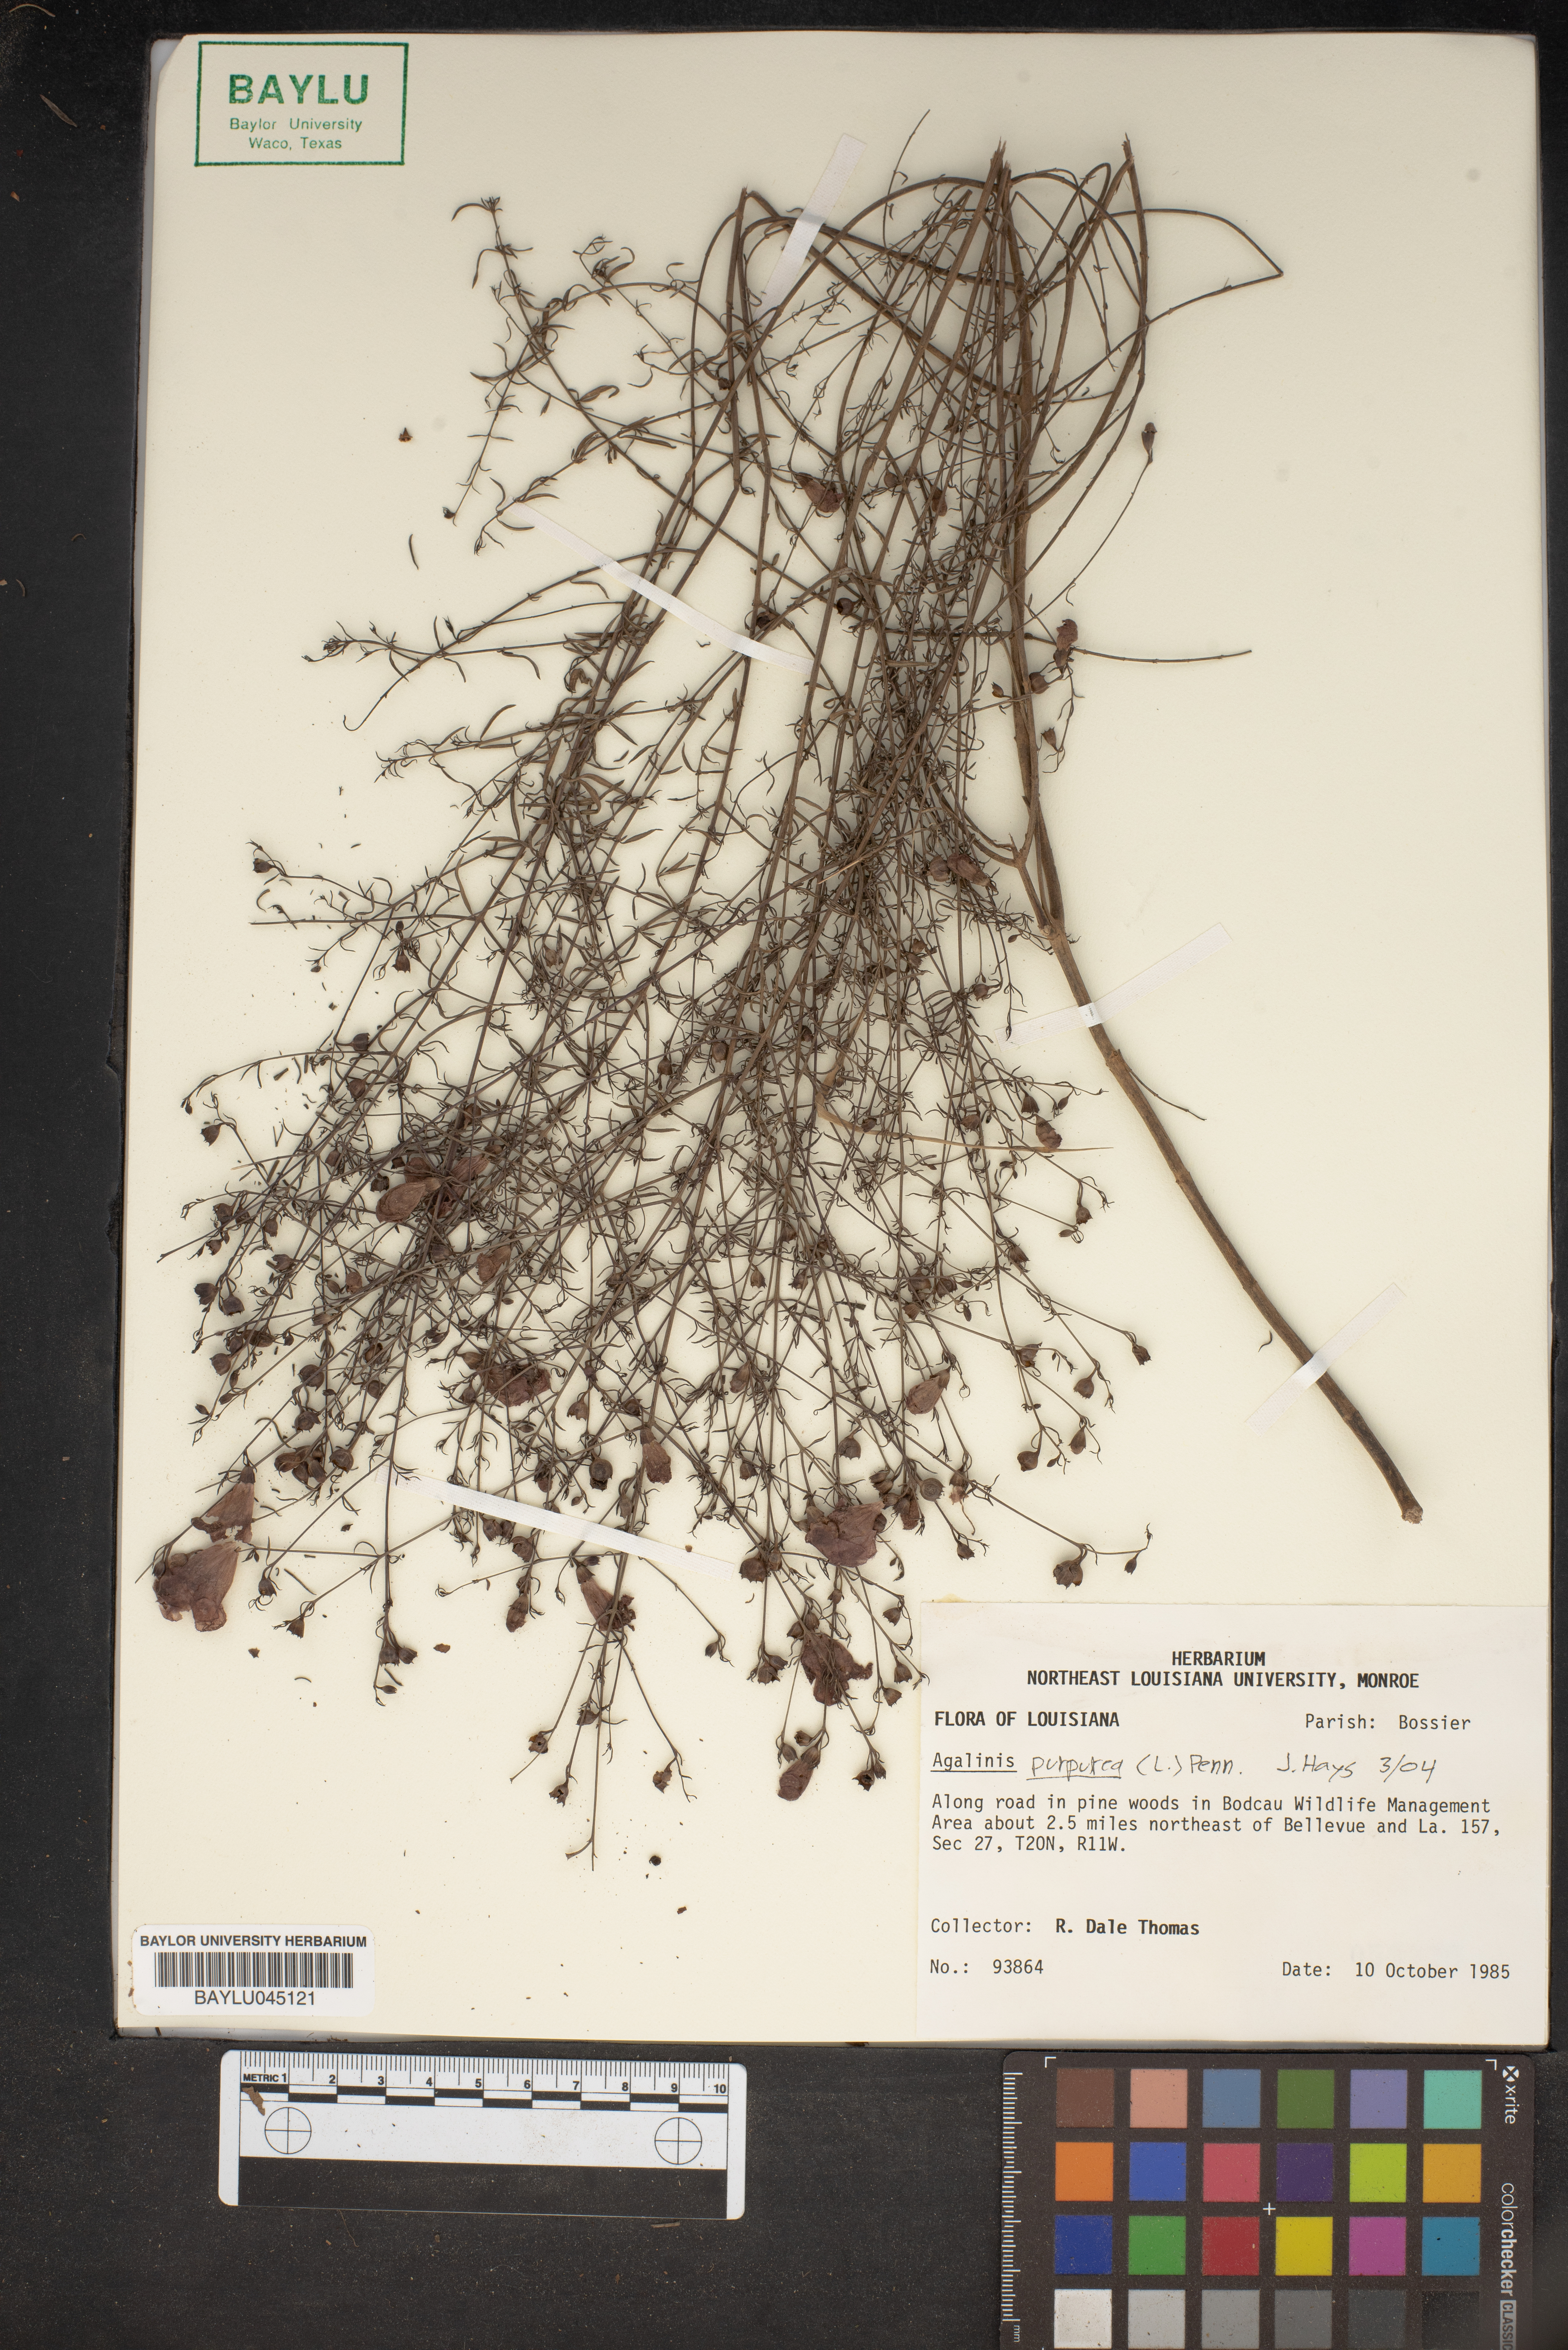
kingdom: Plantae
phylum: Tracheophyta
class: Magnoliopsida
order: Lamiales
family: Orobanchaceae
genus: Agalinis
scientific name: Agalinis purpurea
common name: Purple false foxglove
